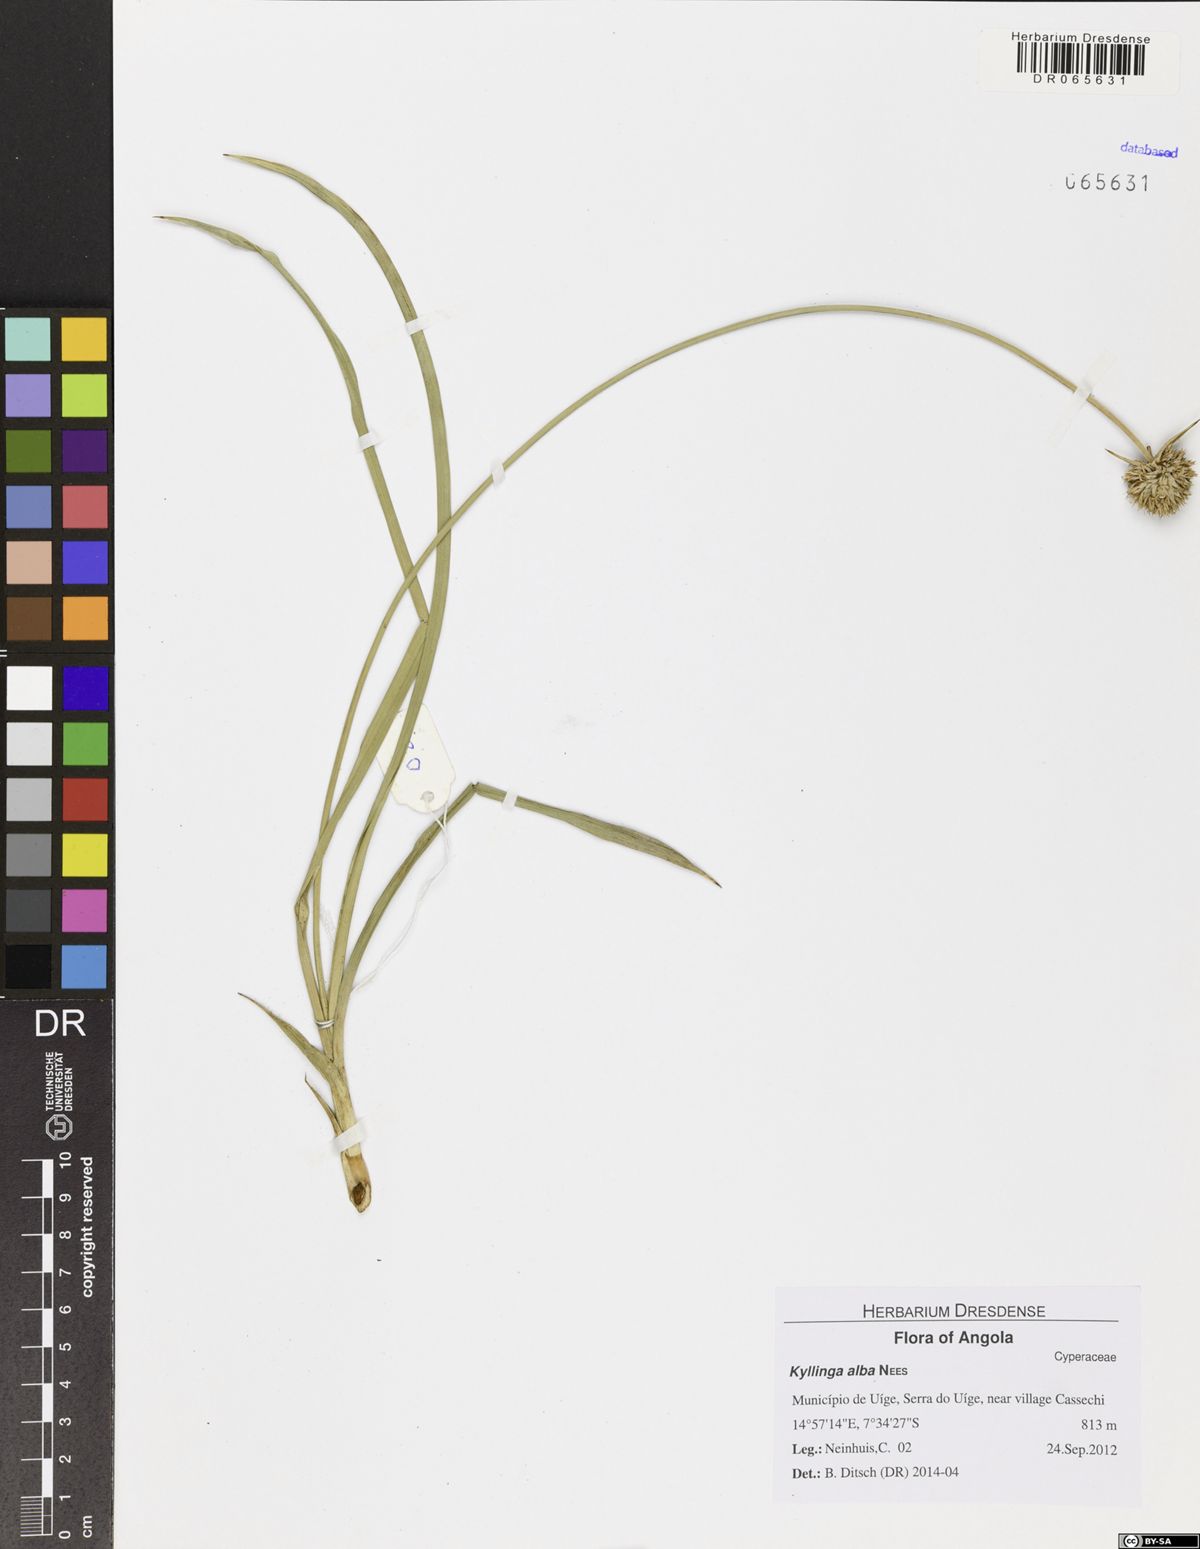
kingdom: Plantae
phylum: Tracheophyta
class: Liliopsida
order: Poales
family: Cyperaceae
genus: Cyperus
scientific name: Cyperus alatus
